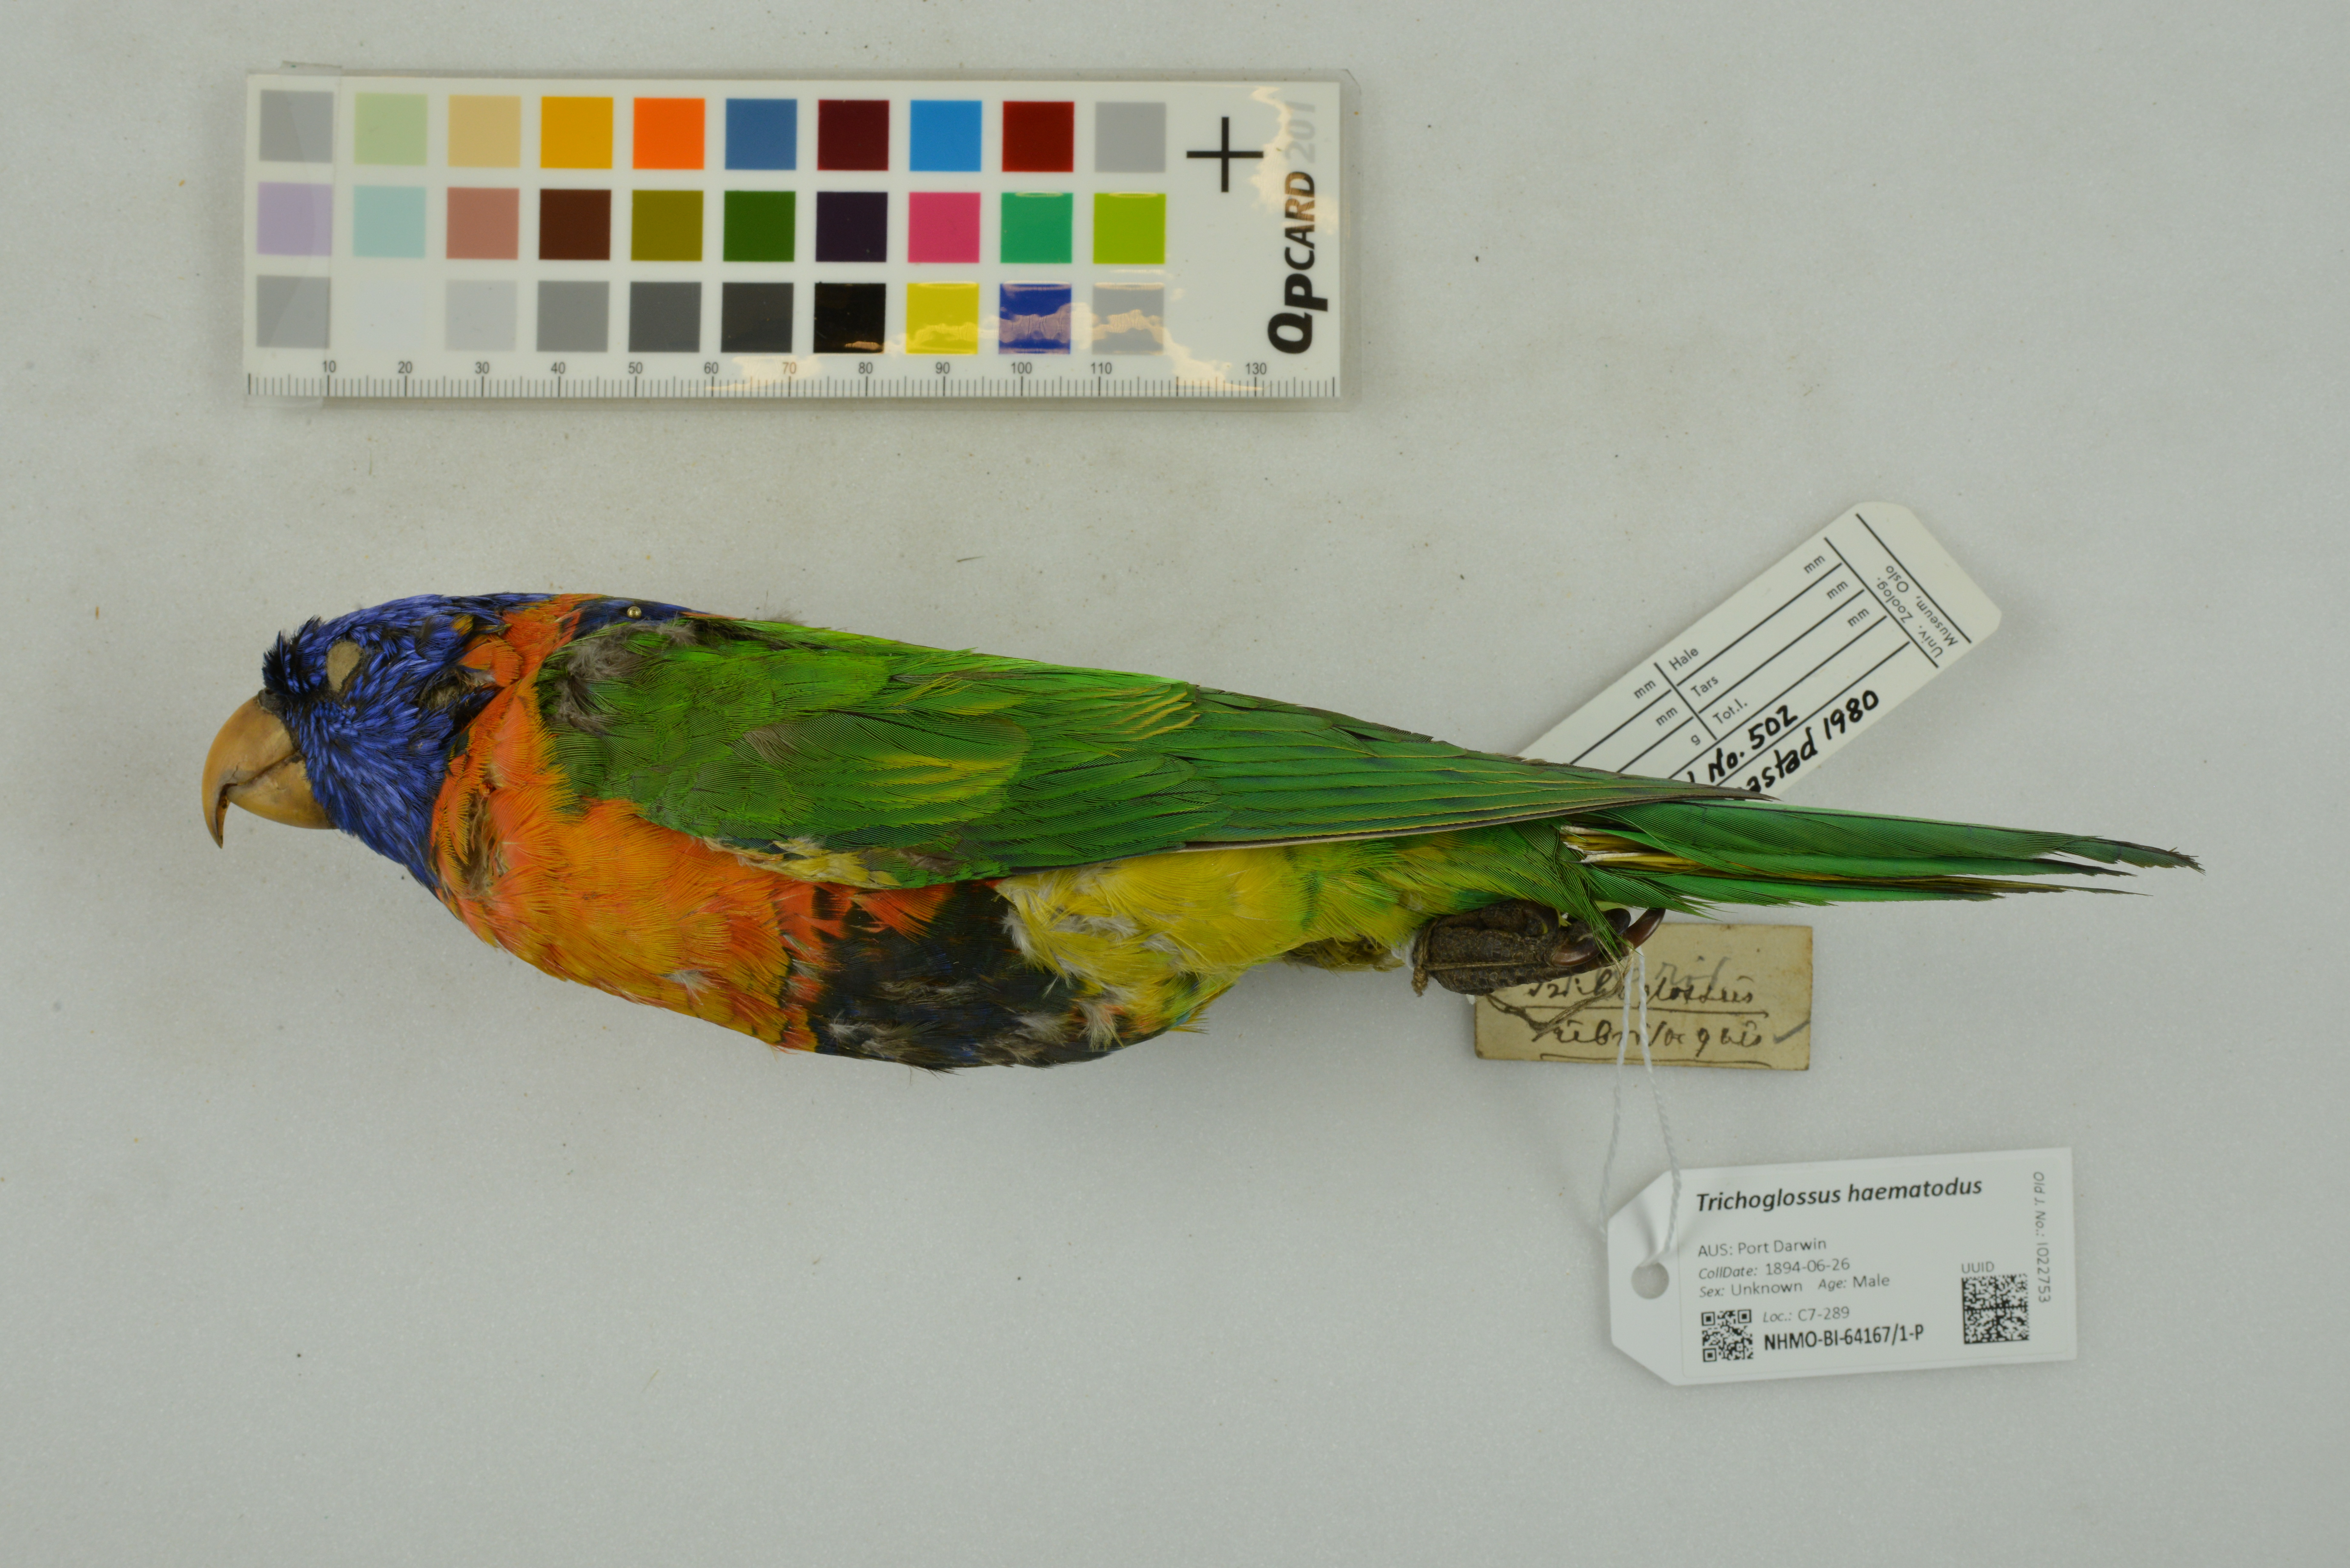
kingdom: Animalia
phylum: Chordata
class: Aves
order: Psittaciformes
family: Psittacidae
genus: Trichoglossus
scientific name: Trichoglossus haematodus
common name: Coconut lorikeet
